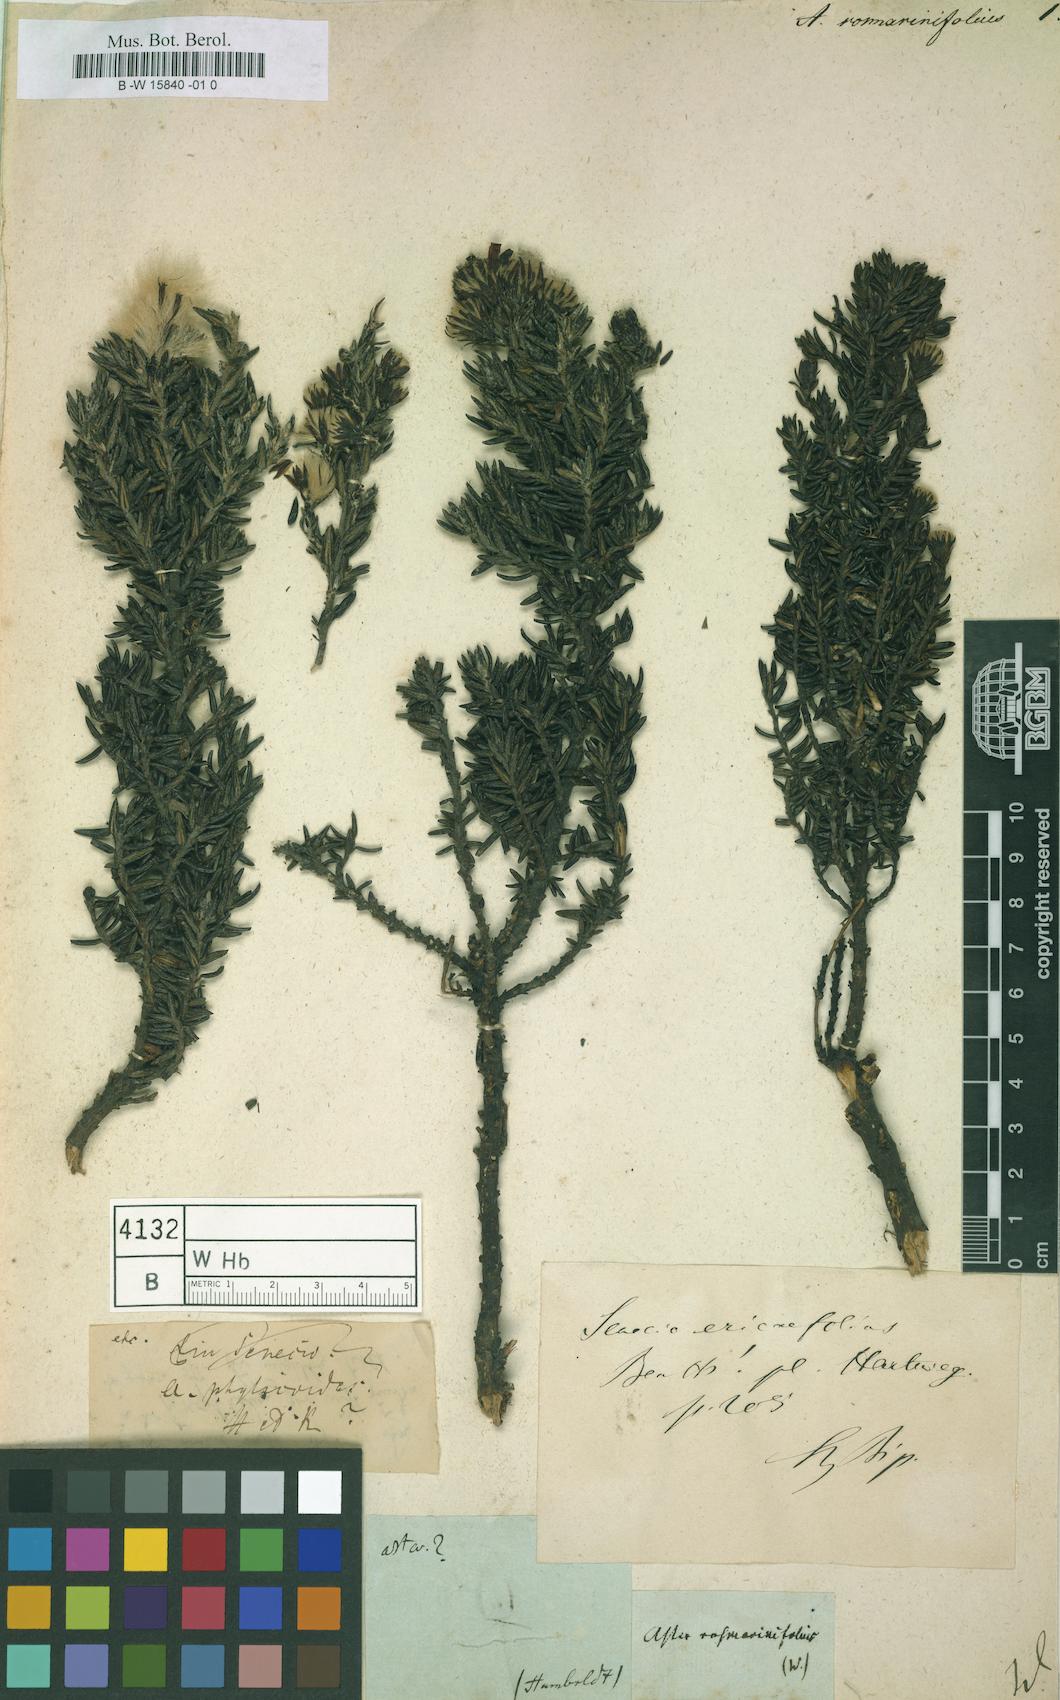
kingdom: Plantae
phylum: Tracheophyta
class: Magnoliopsida
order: Asterales
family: Asteraceae
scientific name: Asteraceae
